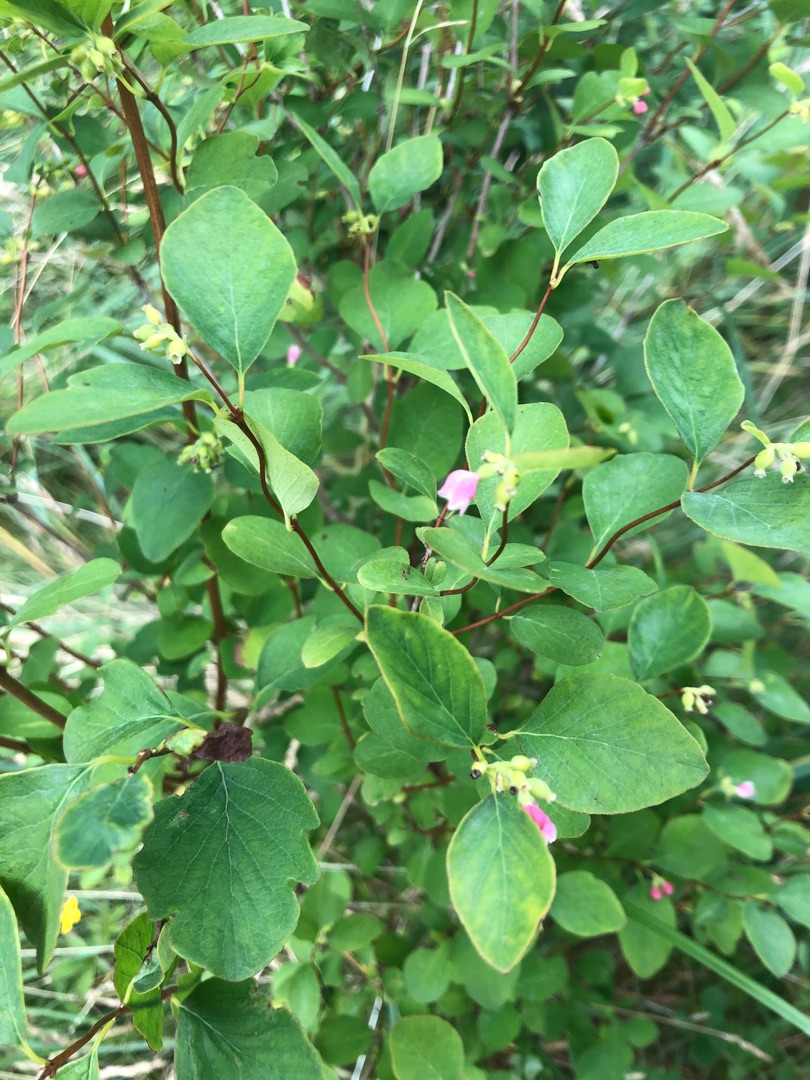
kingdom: Plantae
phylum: Tracheophyta
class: Magnoliopsida
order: Dipsacales
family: Caprifoliaceae
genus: Symphoricarpos
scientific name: Symphoricarpos albus
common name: Almindelig snebær
